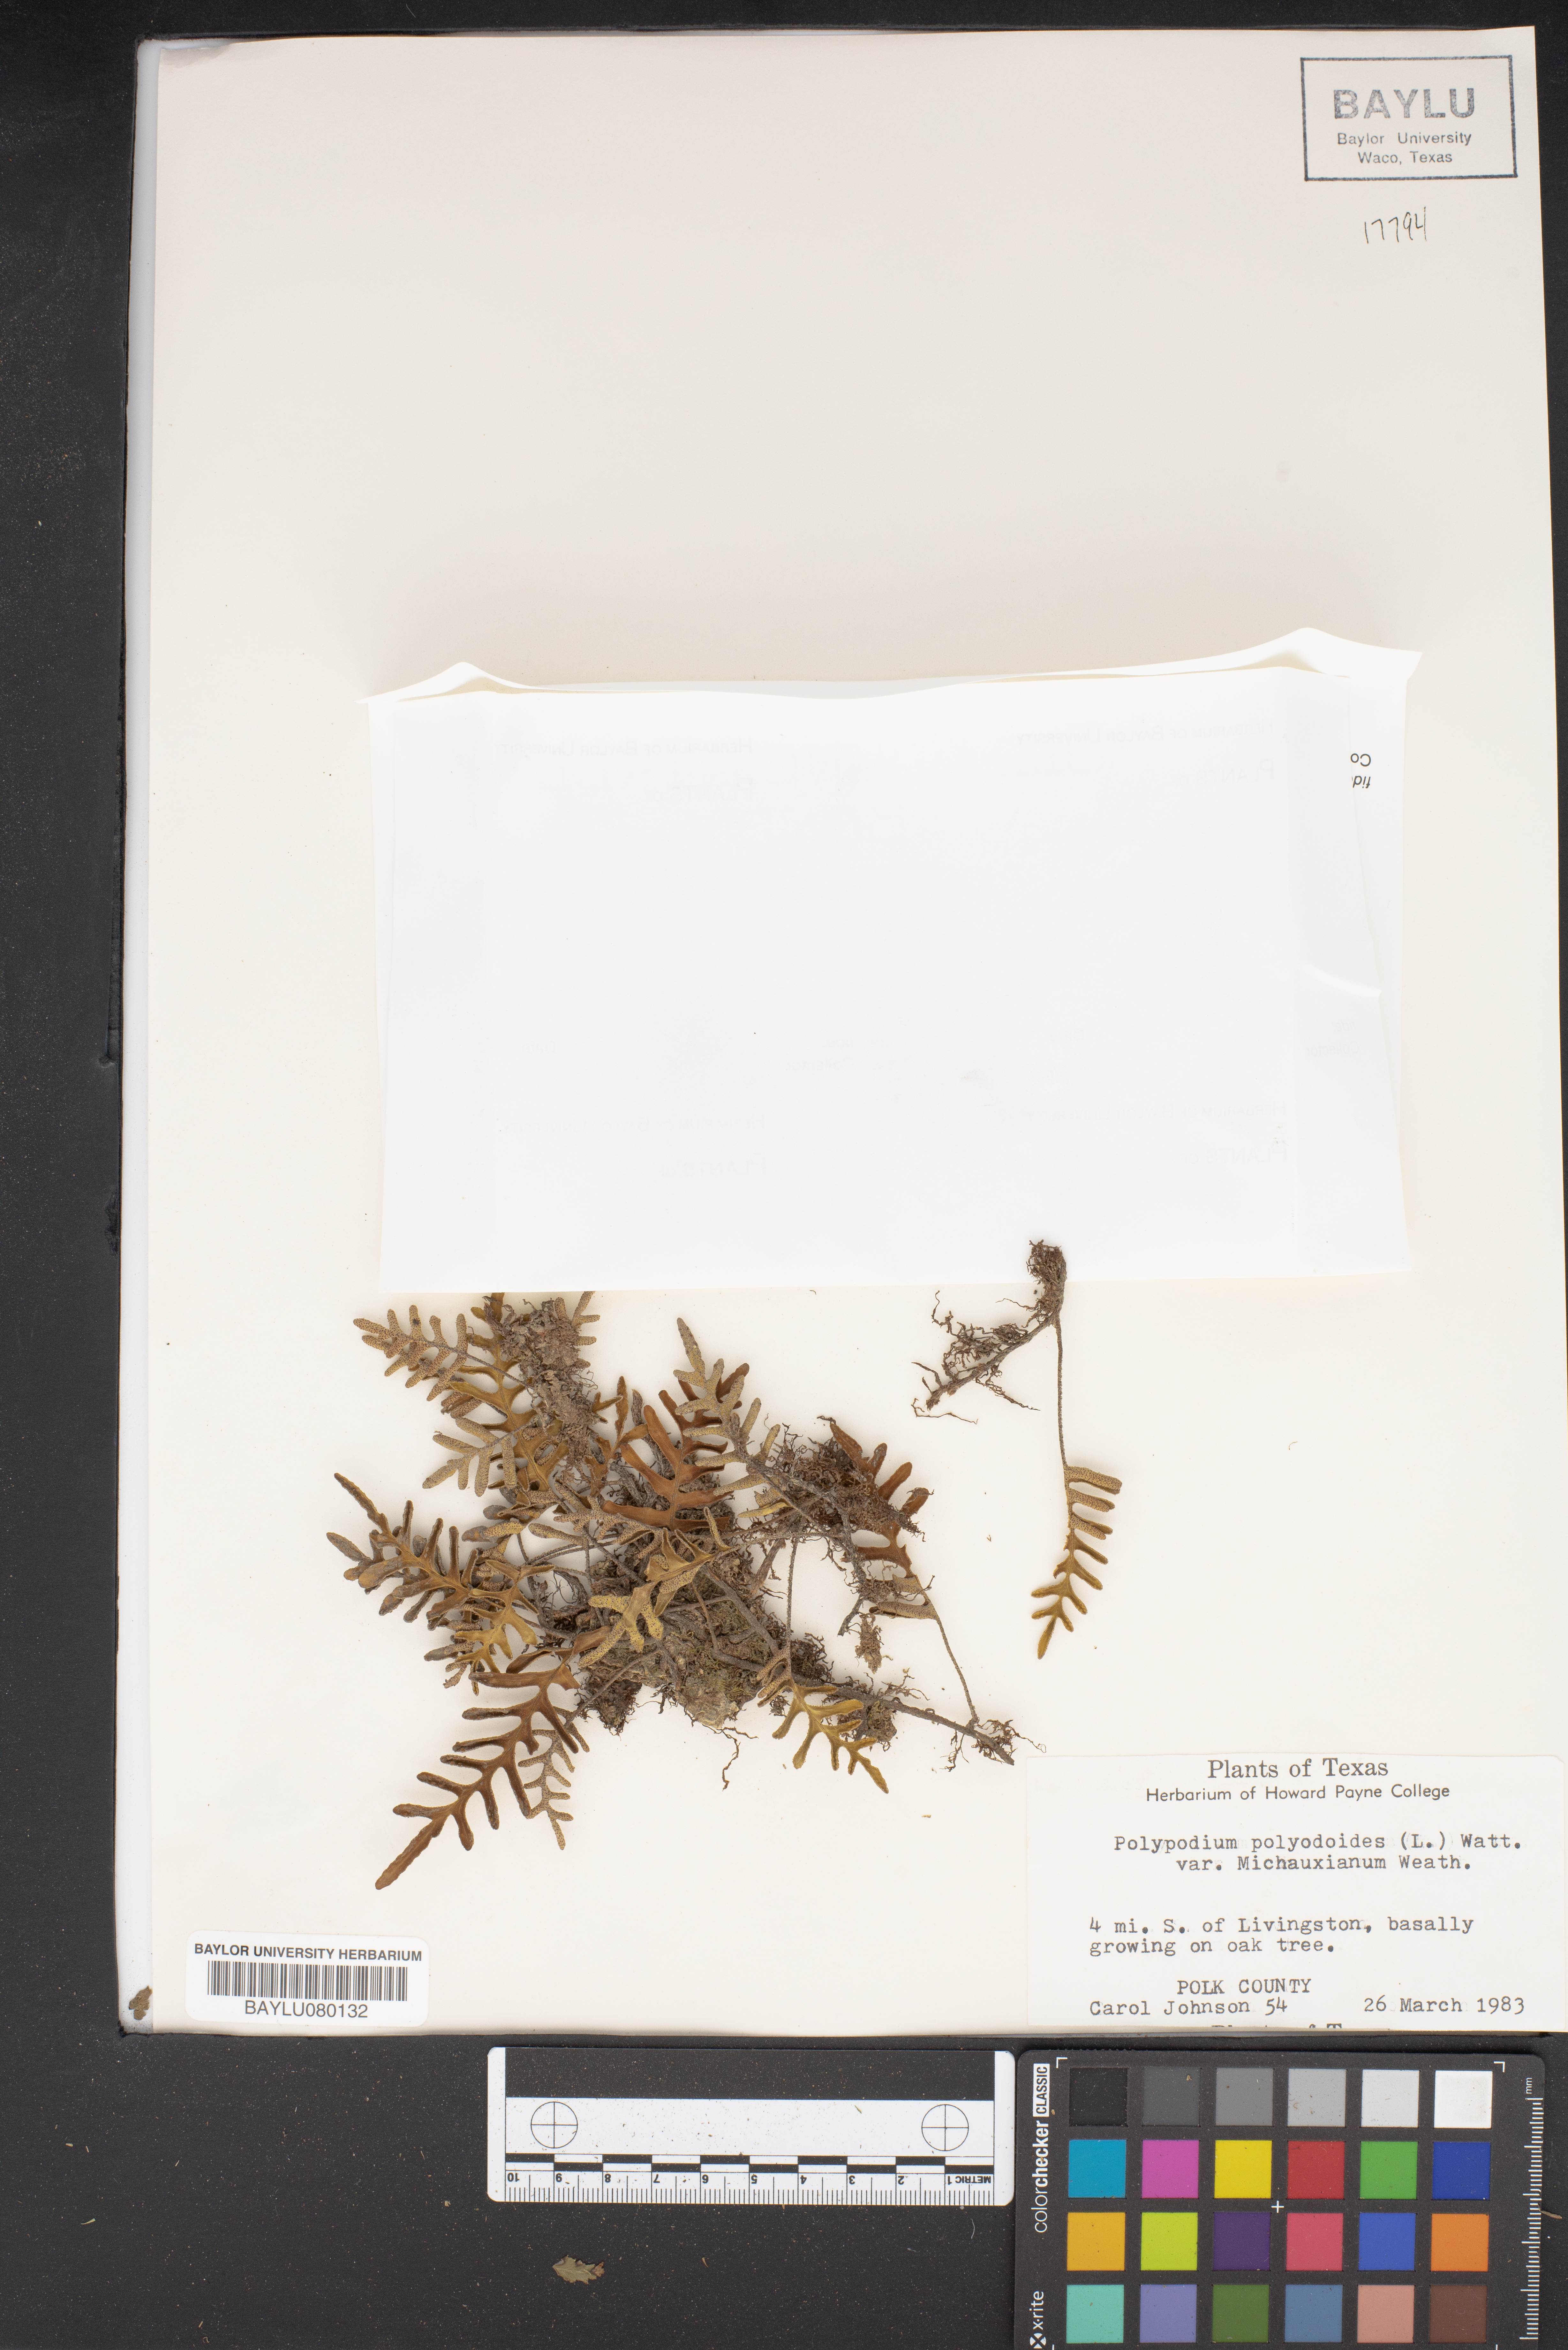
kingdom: Plantae
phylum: Tracheophyta
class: Polypodiopsida
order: Polypodiales
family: Polypodiaceae
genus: Pleopeltis
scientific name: Pleopeltis michauxiana
